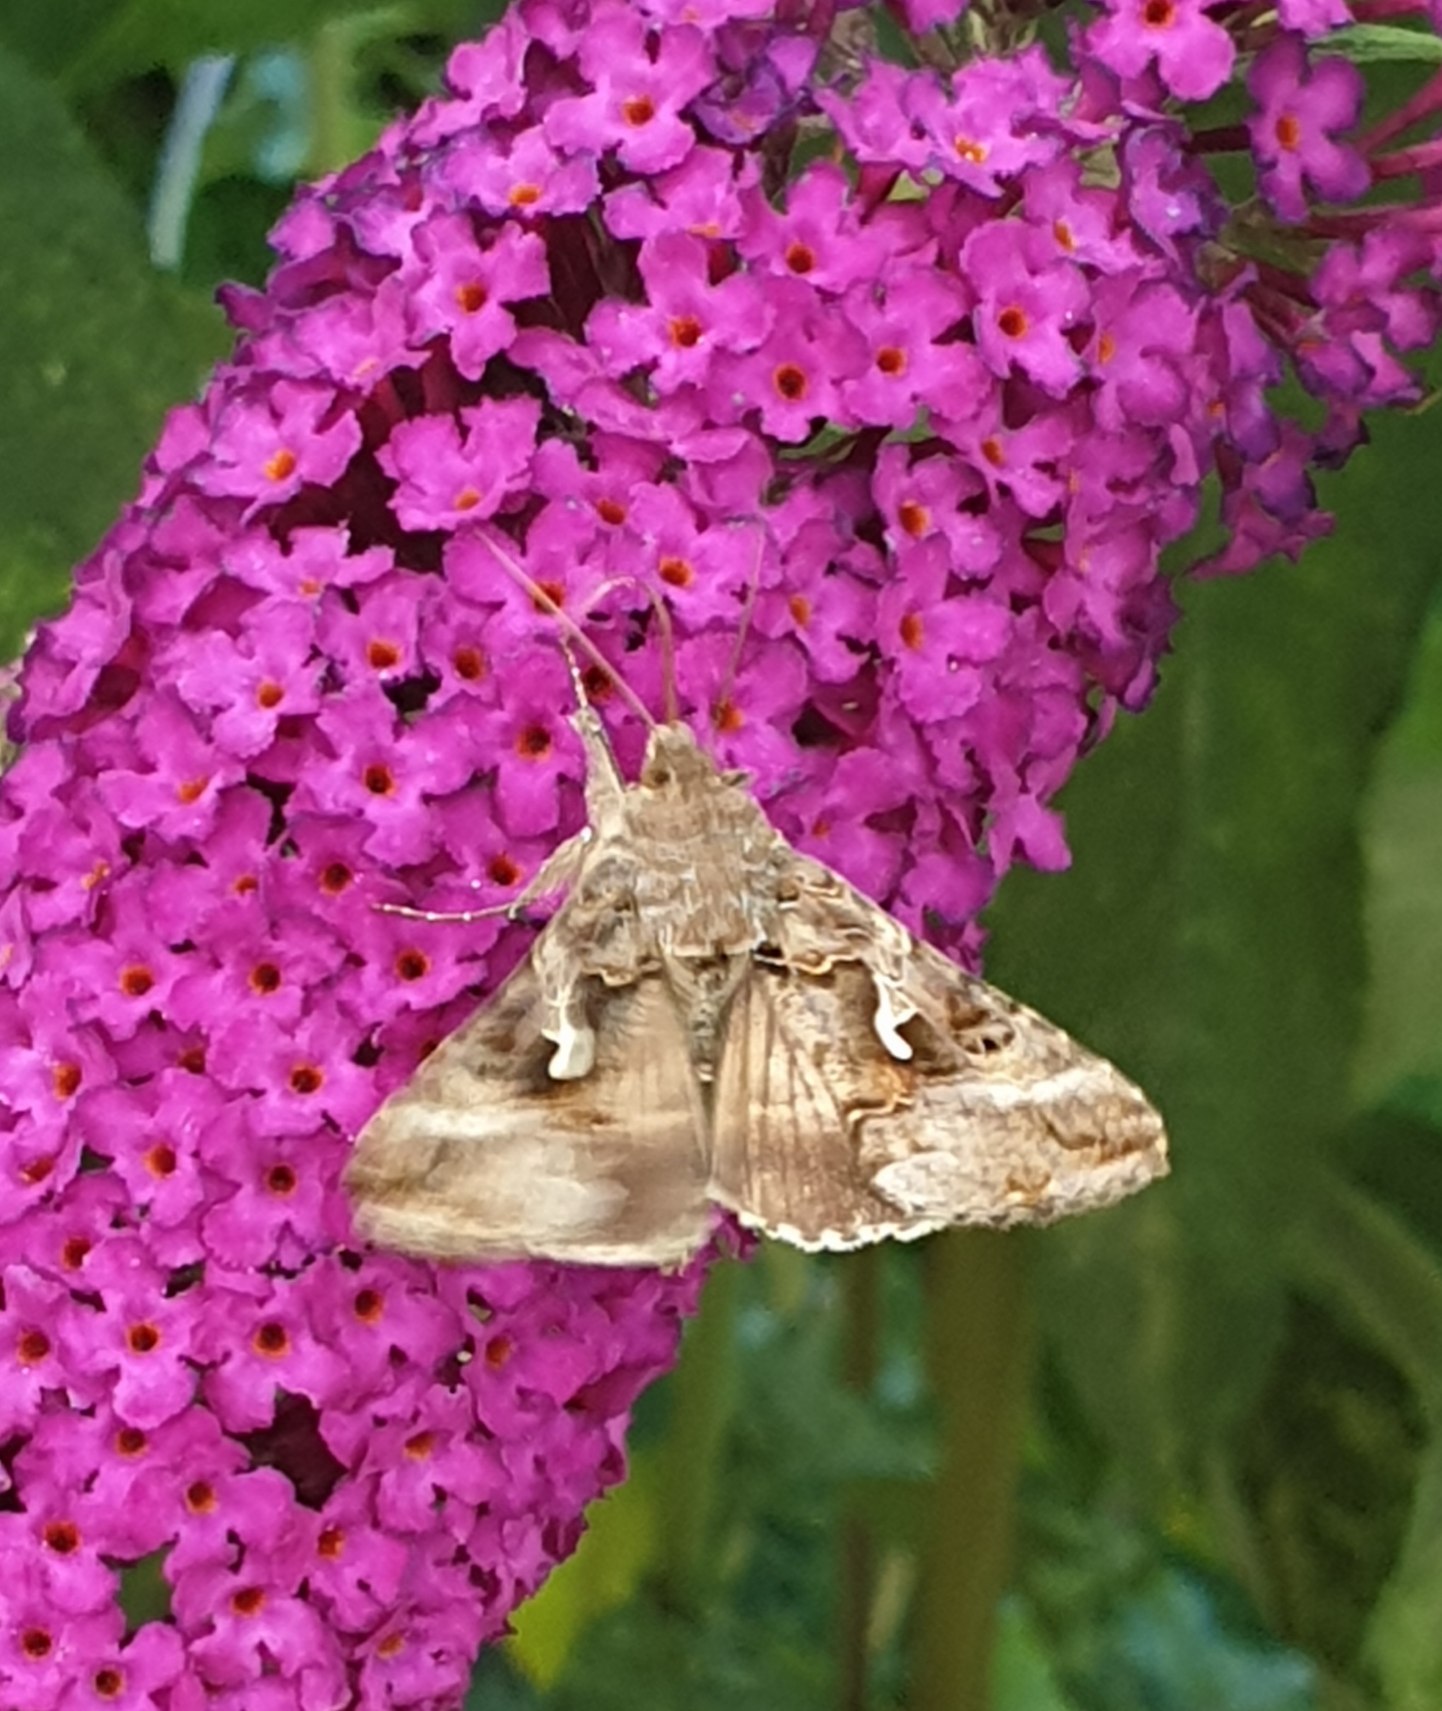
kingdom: Animalia
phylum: Arthropoda
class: Insecta
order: Lepidoptera
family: Noctuidae
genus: Autographa
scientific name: Autographa gamma
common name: Gammaugle
